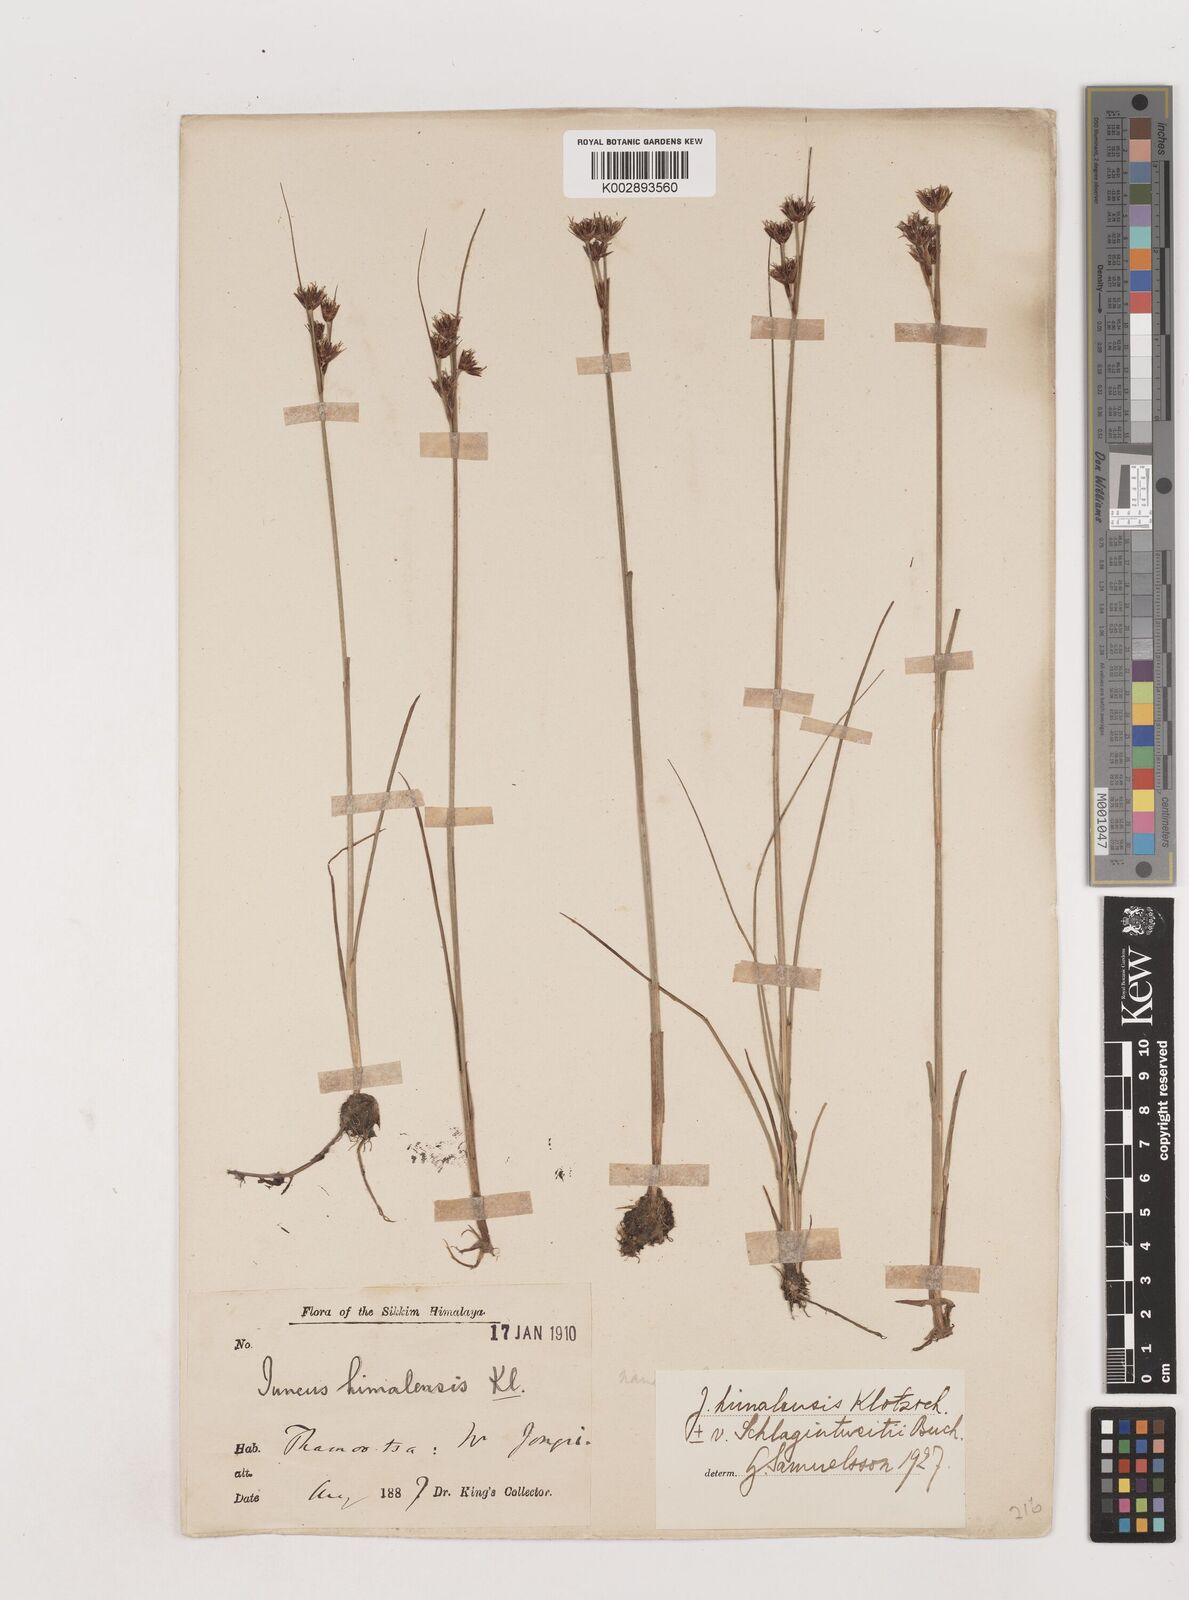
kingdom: Plantae
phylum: Tracheophyta
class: Liliopsida
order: Poales
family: Juncaceae
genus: Juncus
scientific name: Juncus himalensis
